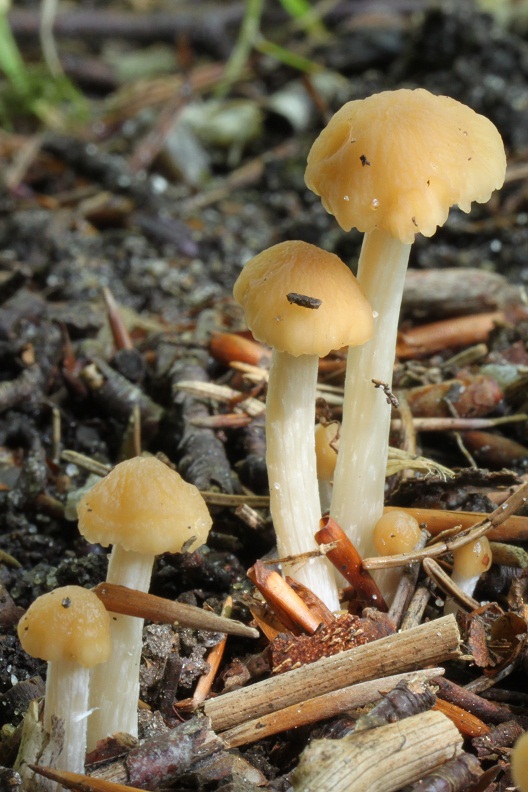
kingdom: Fungi
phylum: Basidiomycota
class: Agaricomycetes
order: Agaricales
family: Psathyrellaceae
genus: Psathyrella
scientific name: Psathyrella pseudogracilis
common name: slank mørkhat
